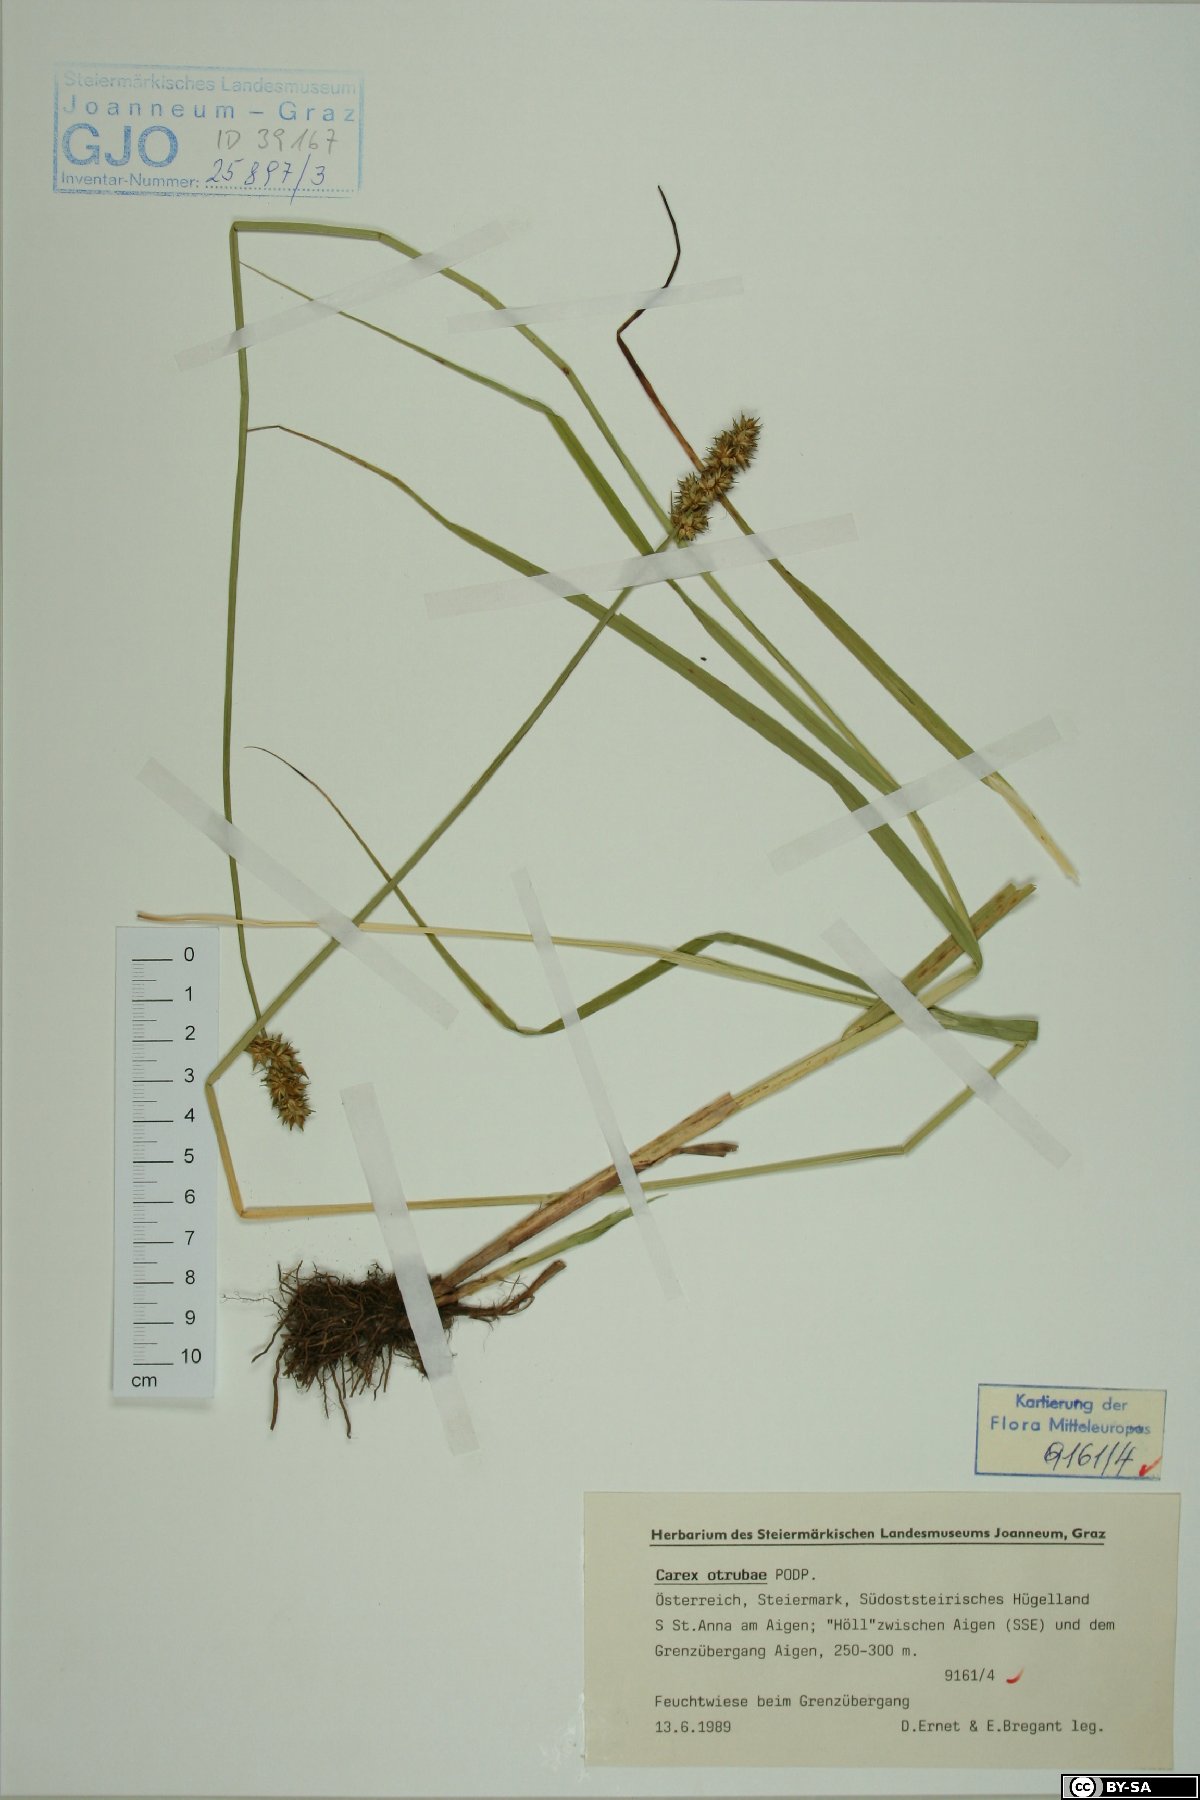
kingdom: Plantae
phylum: Tracheophyta
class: Liliopsida
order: Poales
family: Cyperaceae
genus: Carex
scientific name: Carex otrubae
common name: False fox-sedge
